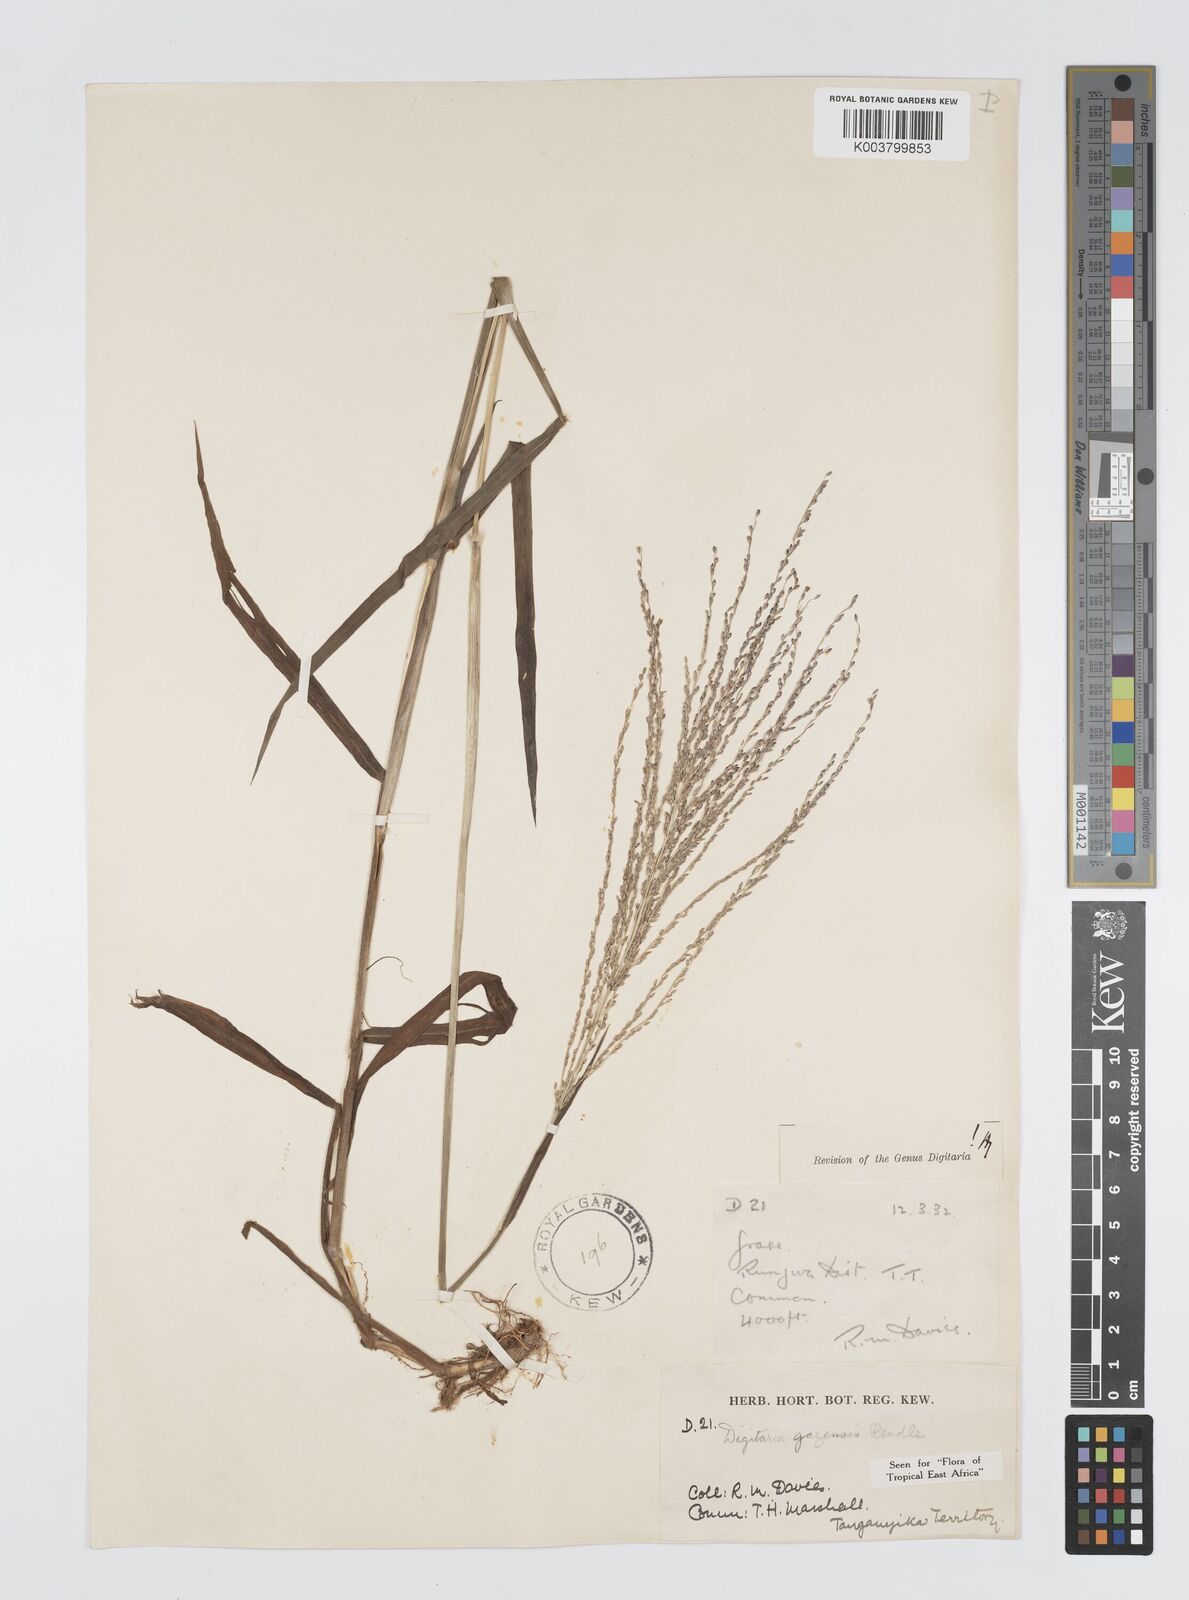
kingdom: Plantae
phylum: Tracheophyta
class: Liliopsida
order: Poales
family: Poaceae
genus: Digitaria
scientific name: Digitaria gazensis
